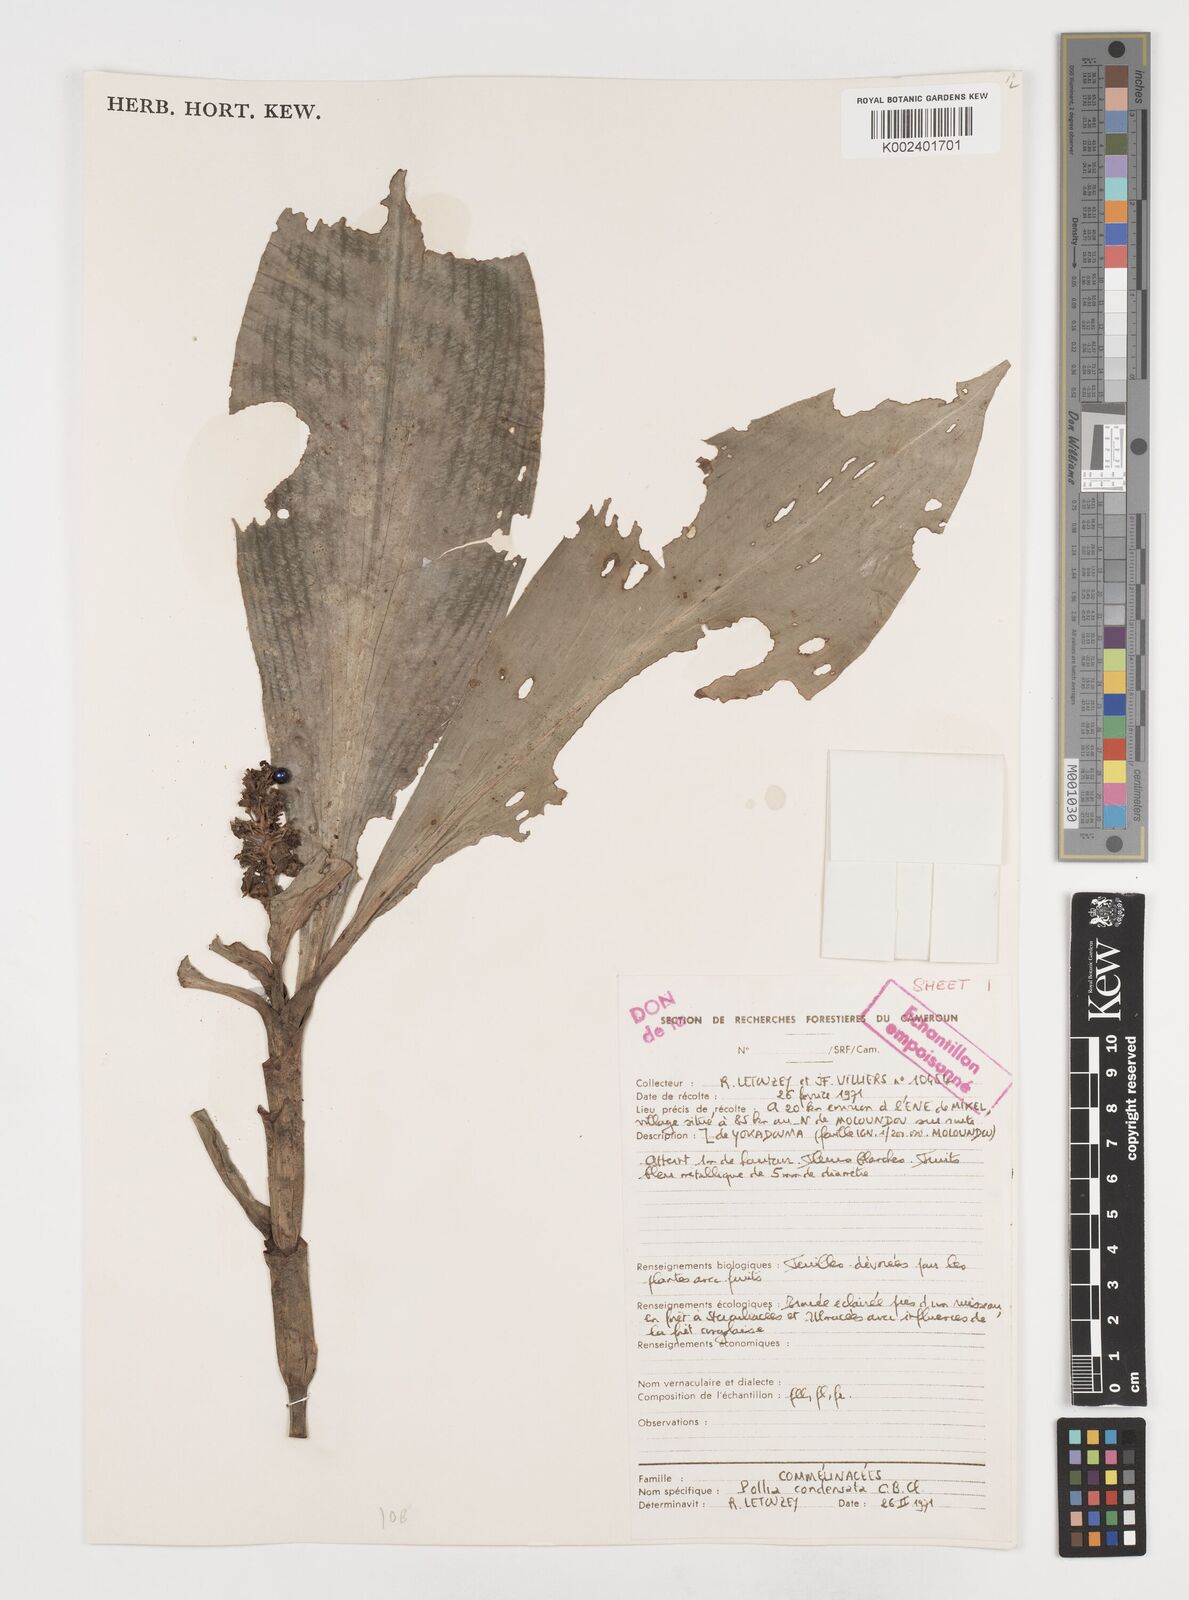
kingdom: Plantae
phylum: Tracheophyta
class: Liliopsida
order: Commelinales
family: Commelinaceae
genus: Pollia
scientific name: Pollia condensata
